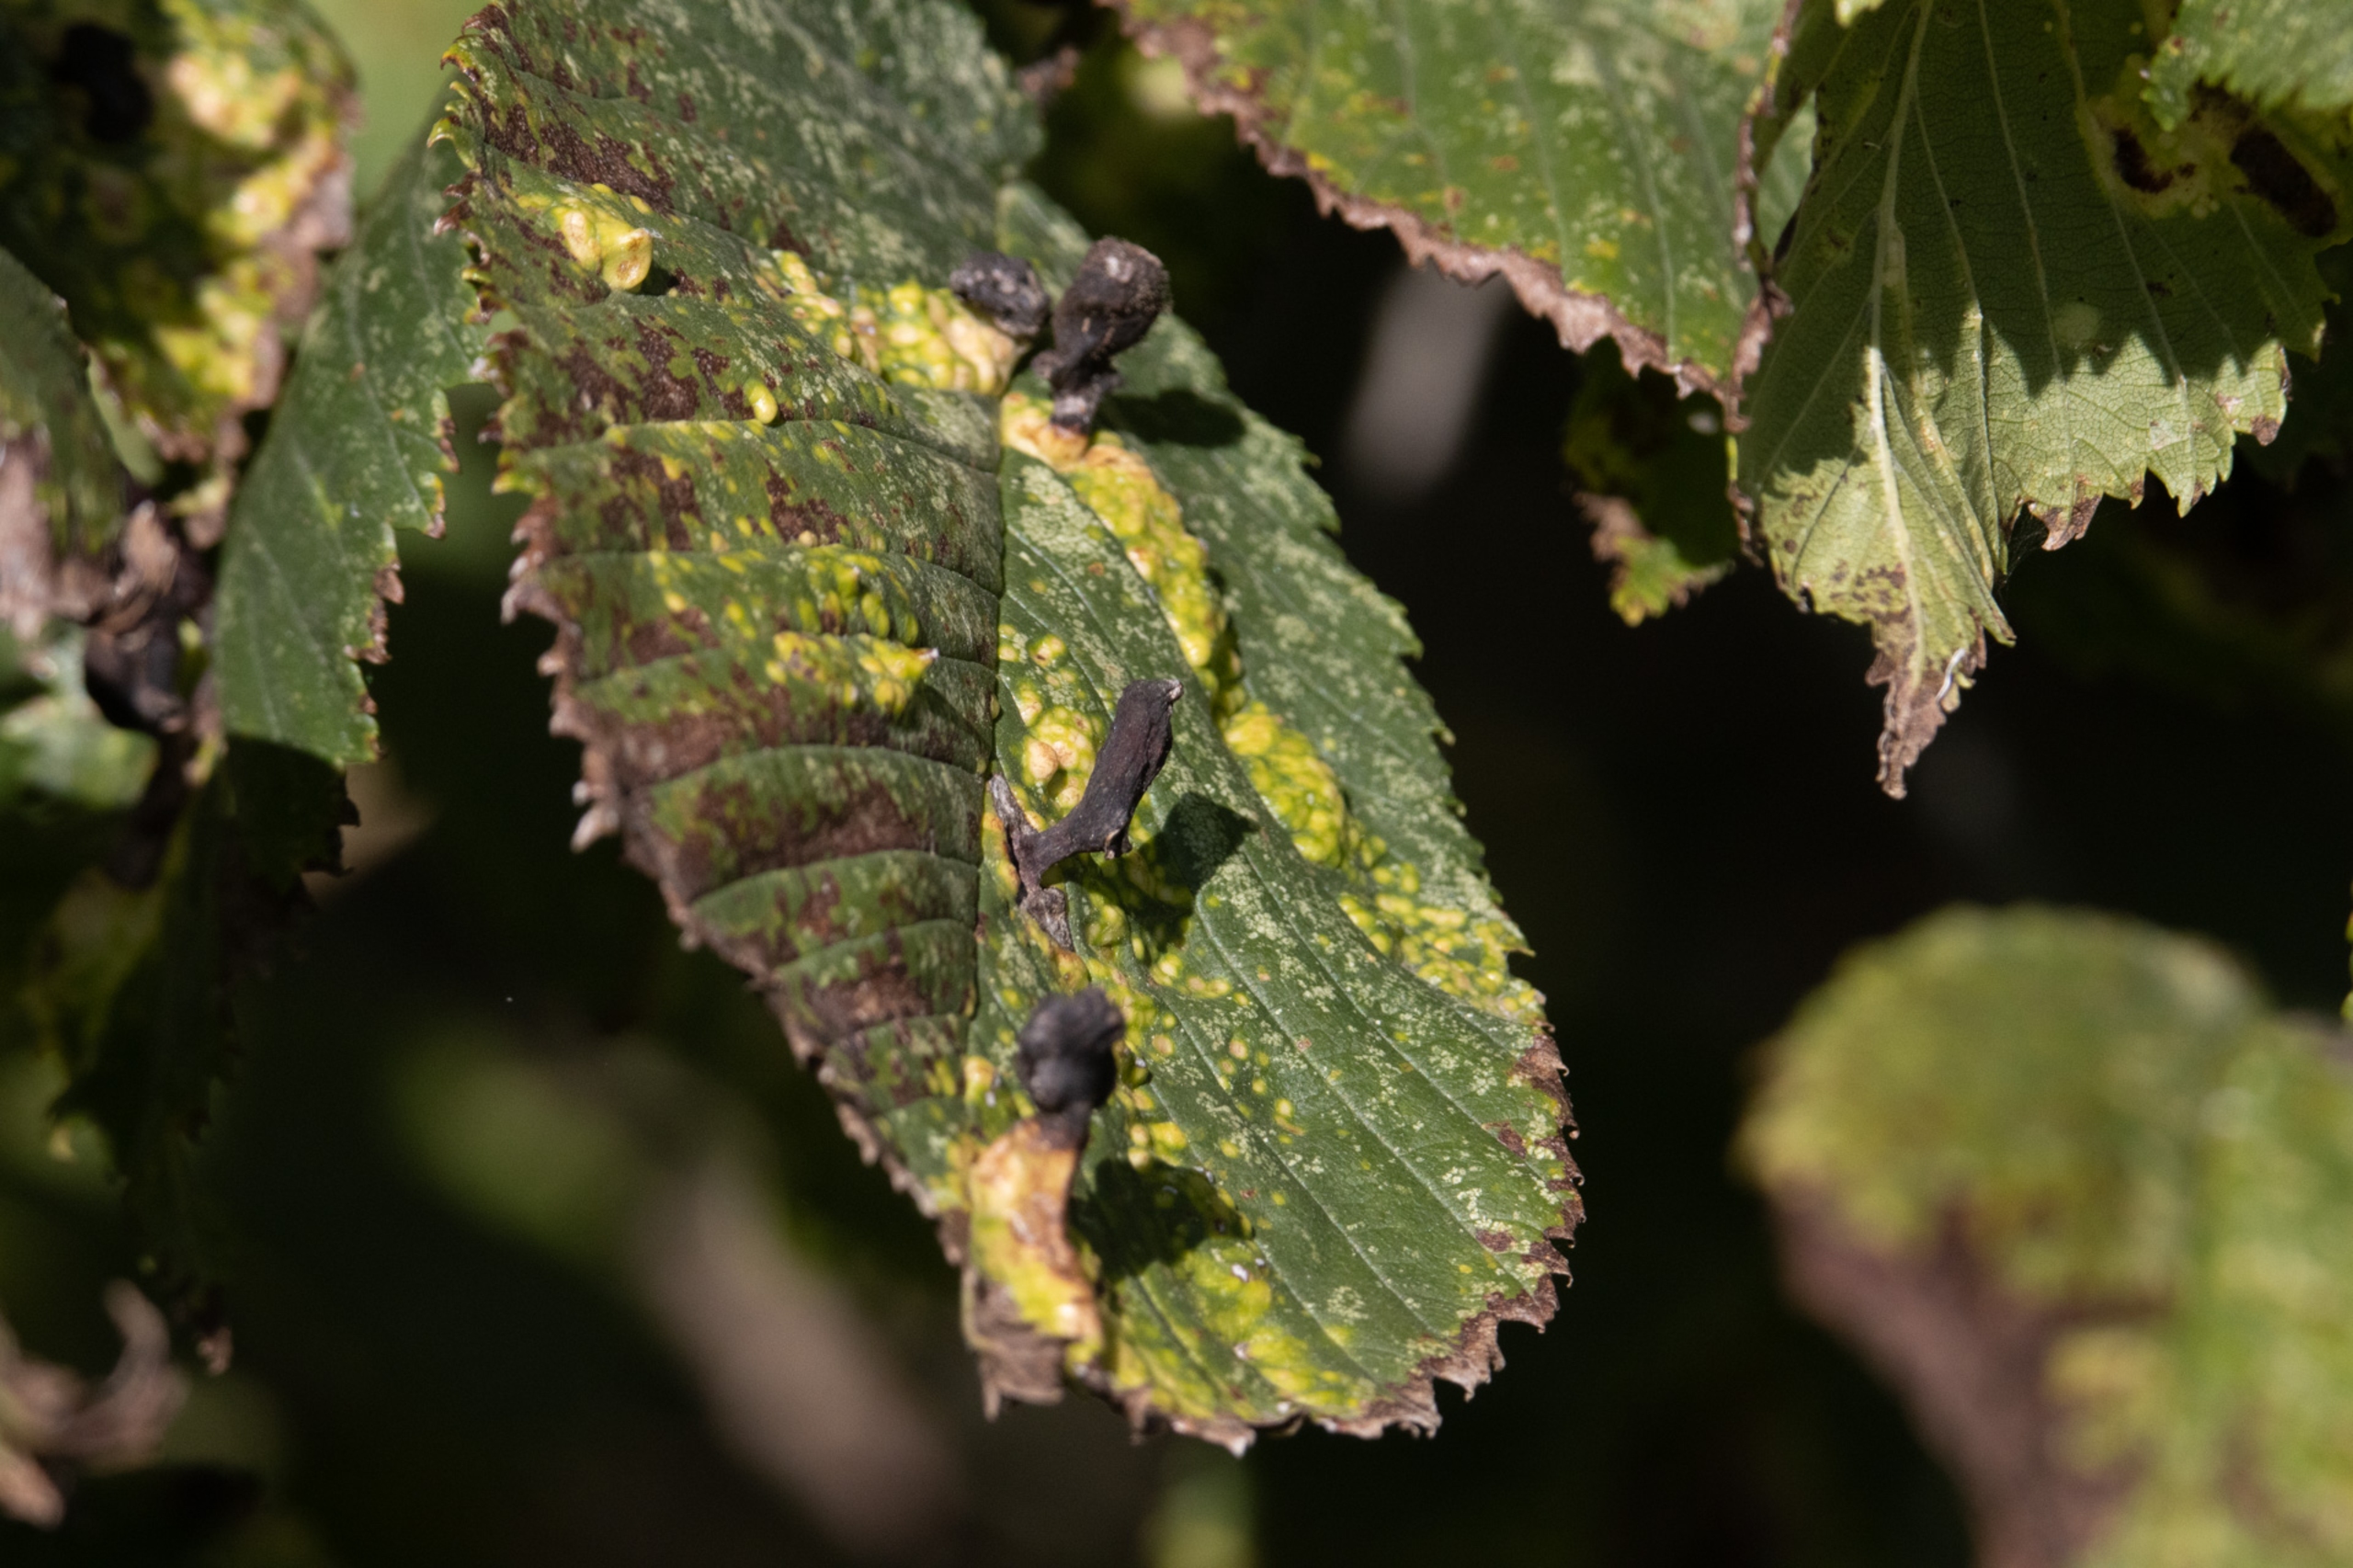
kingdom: Animalia
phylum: Arthropoda
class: Insecta
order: Hemiptera
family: Aphididae
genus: Tetraneura
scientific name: Tetraneura ulmi
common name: Elmegallelus
